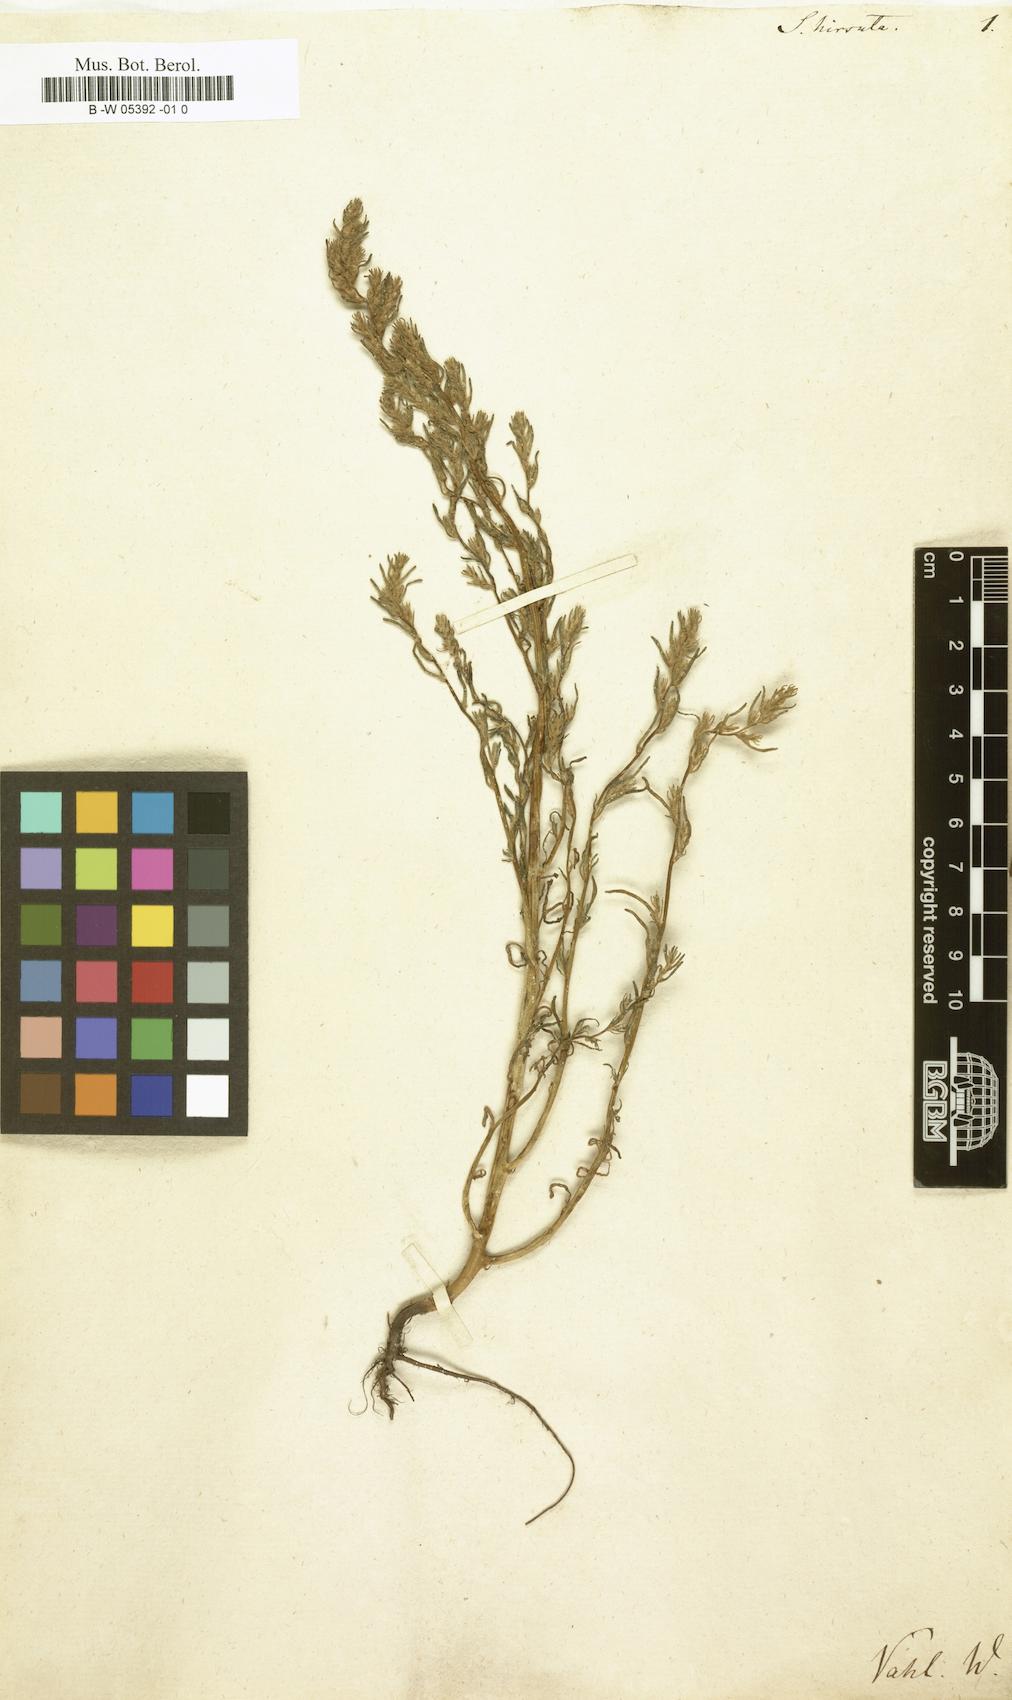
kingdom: Plantae
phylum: Tracheophyta
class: Magnoliopsida
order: Caryophyllales
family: Amaranthaceae
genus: Spirobassia
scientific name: Spirobassia hirsuta
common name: Hairy smotherweed
